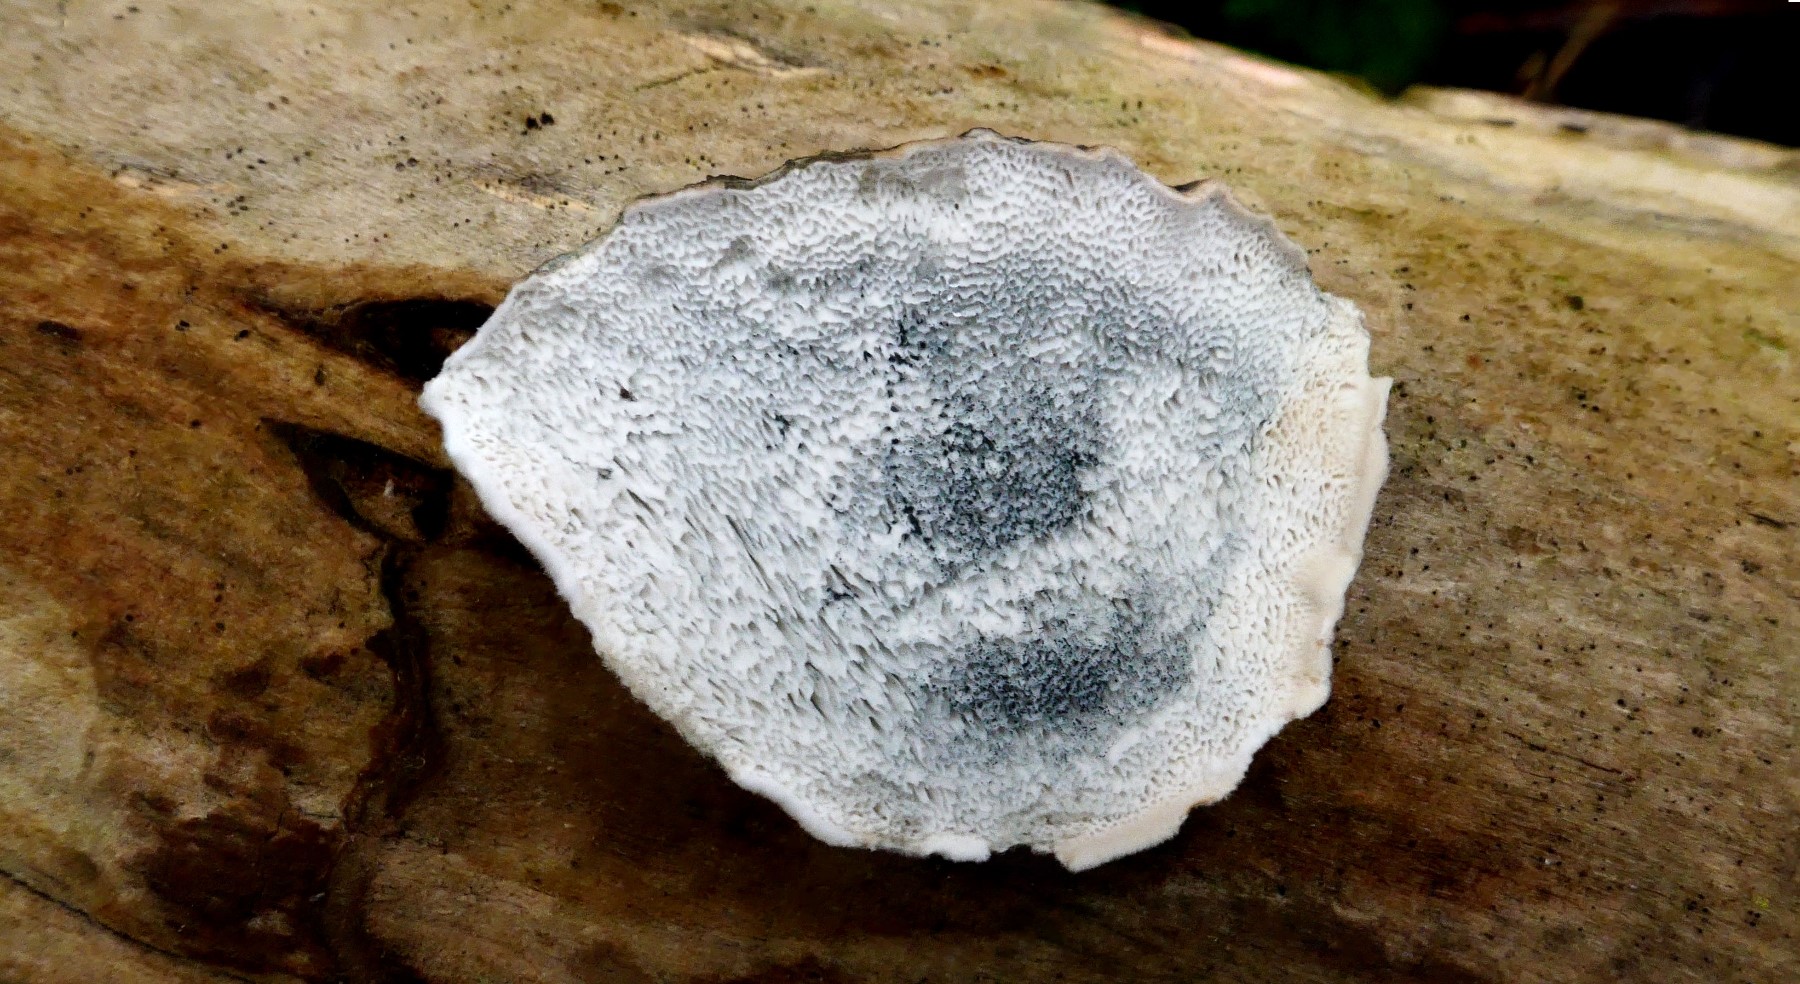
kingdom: Fungi
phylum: Basidiomycota
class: Agaricomycetes
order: Polyporales
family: Polyporaceae
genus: Cyanosporus
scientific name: Cyanosporus alni
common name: blegblå kødporesvamp
